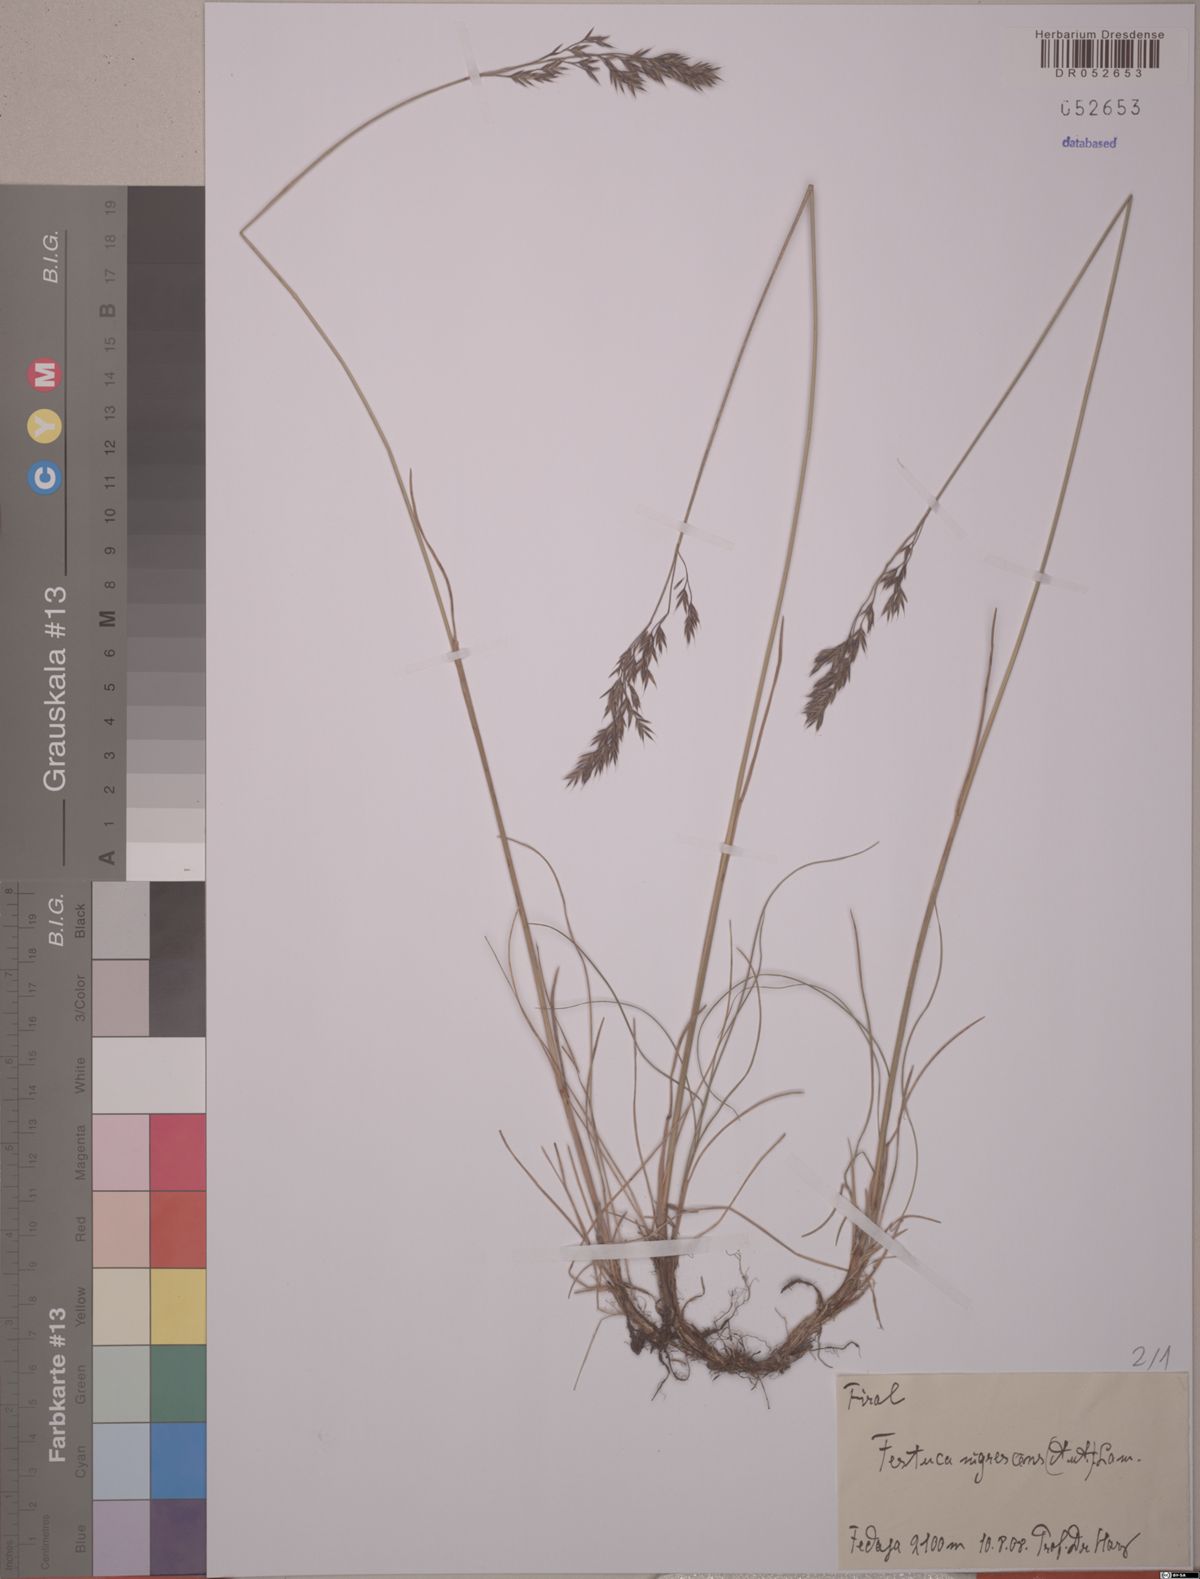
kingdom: Plantae
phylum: Tracheophyta
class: Liliopsida
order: Poales
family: Poaceae
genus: Festuca
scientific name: Festuca nigrescens
